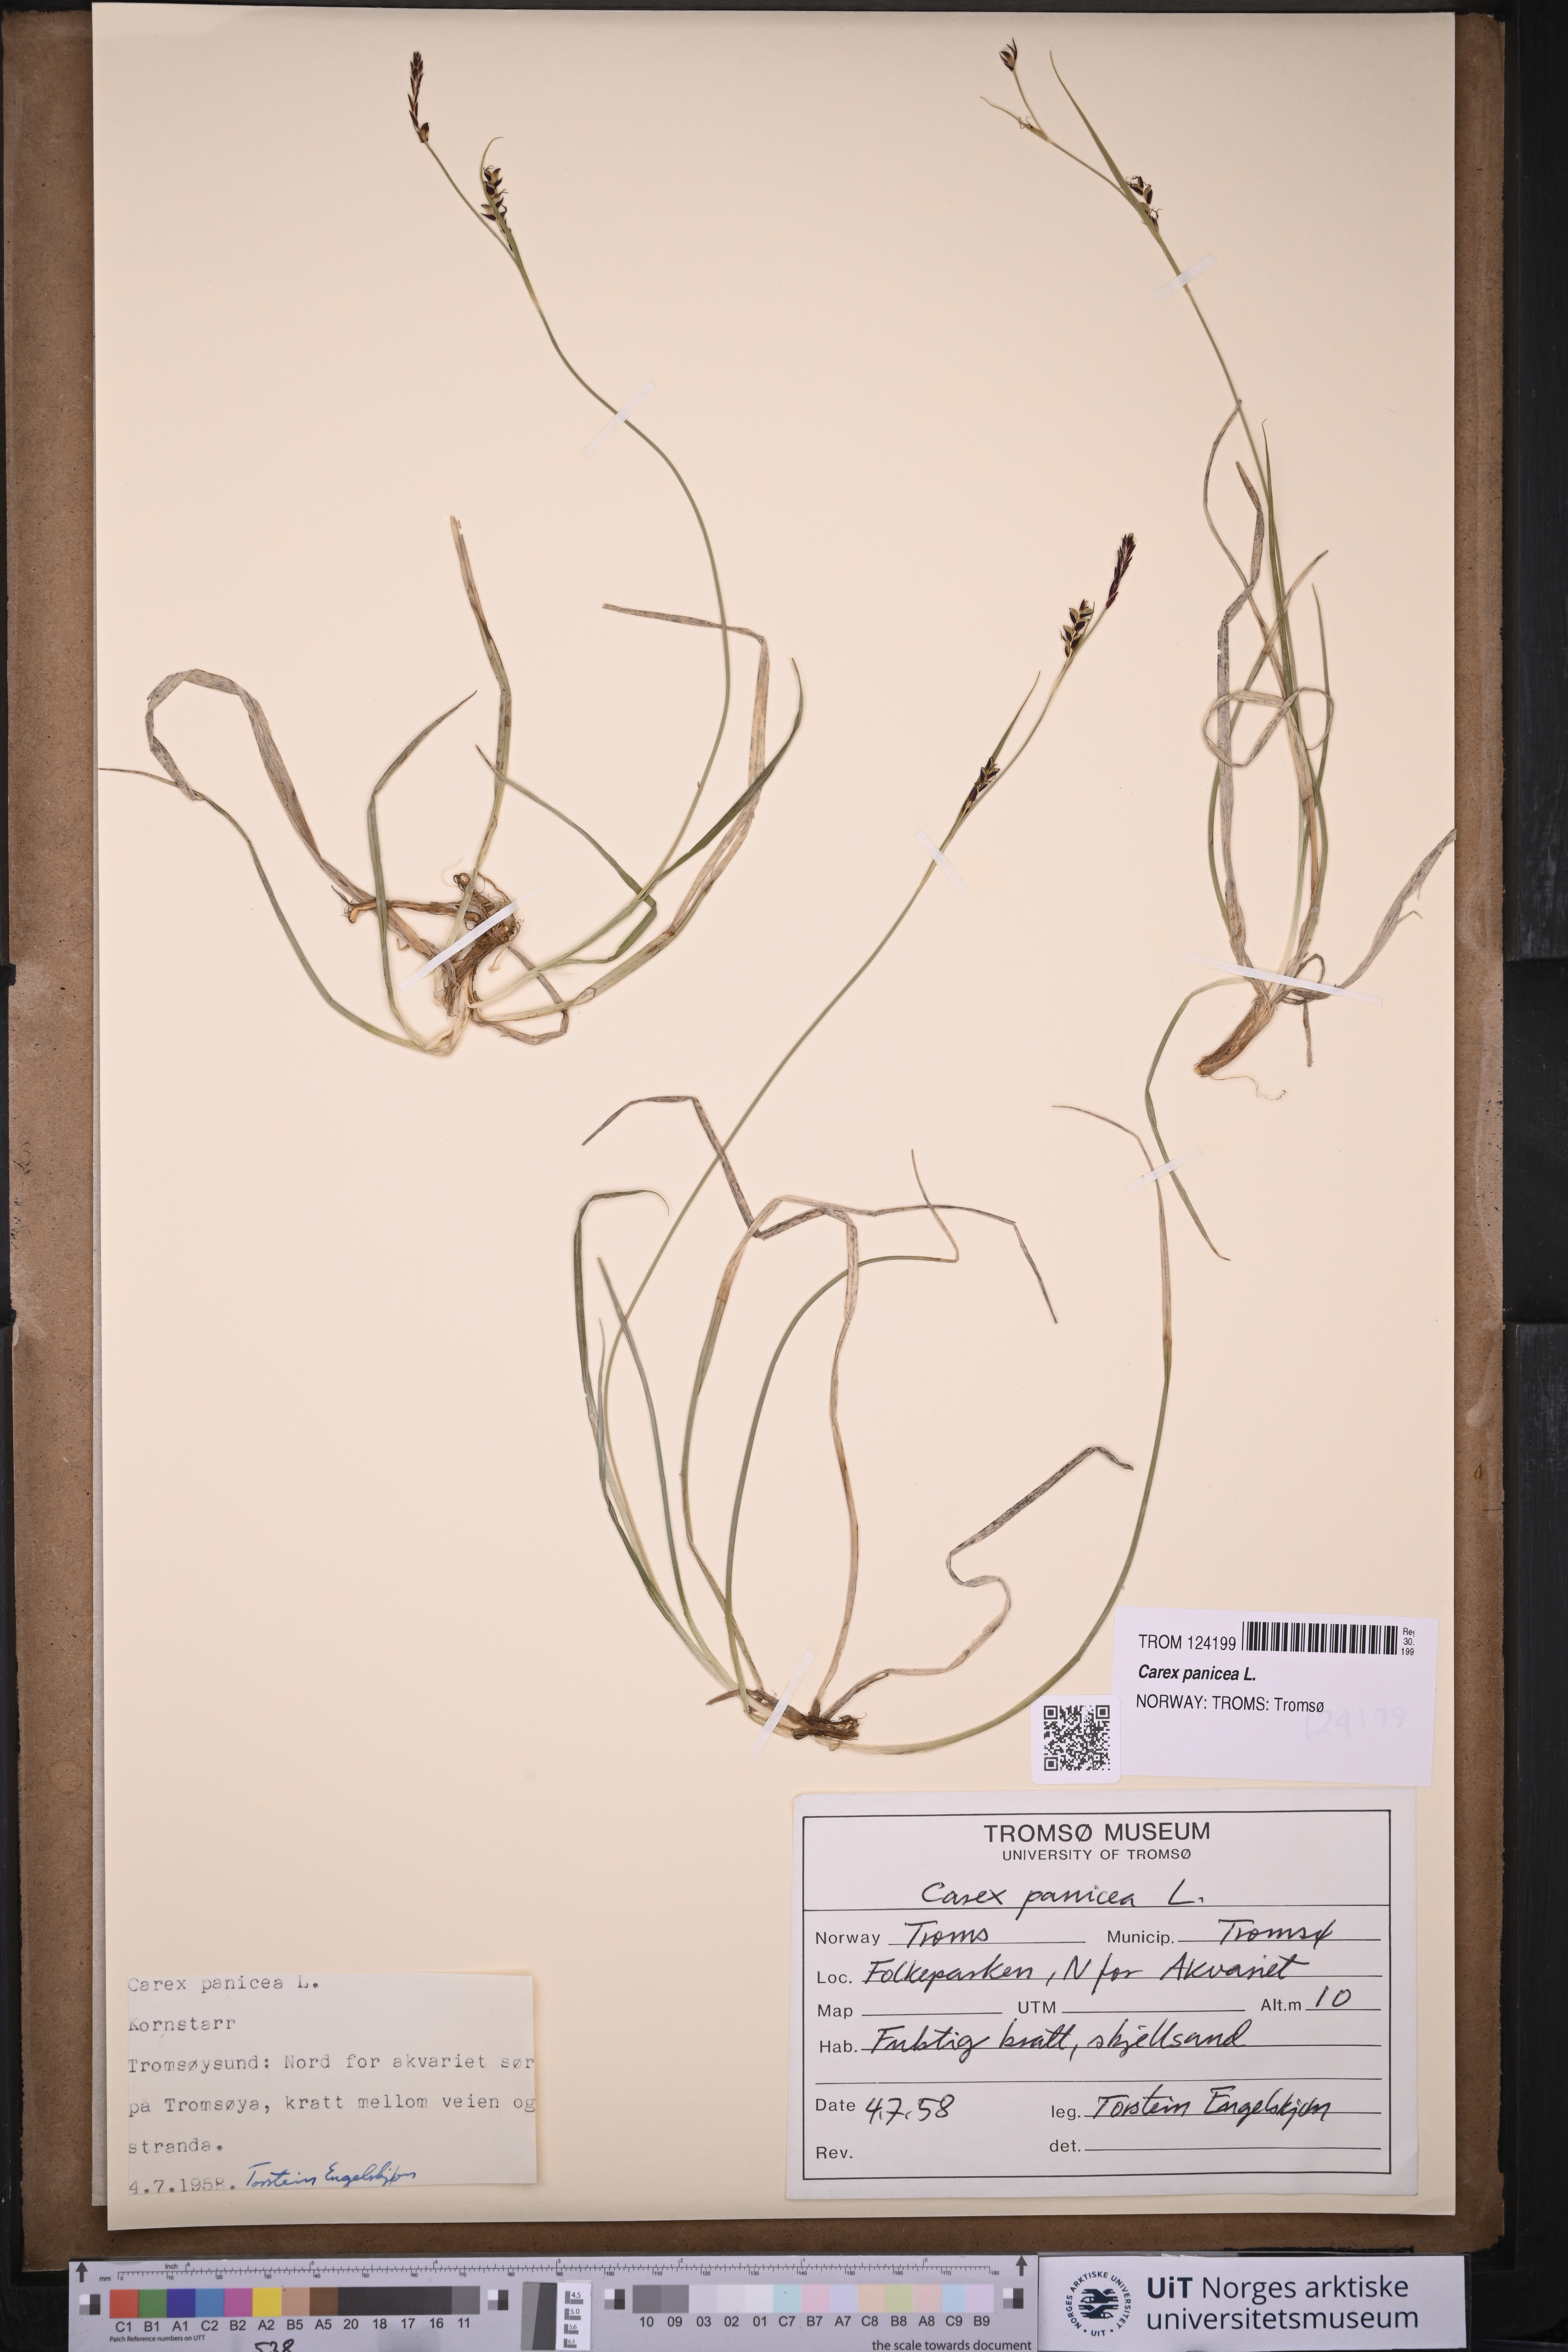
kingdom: Plantae
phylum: Tracheophyta
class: Liliopsida
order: Poales
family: Cyperaceae
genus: Carex
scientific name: Carex panicea
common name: Carnation sedge
